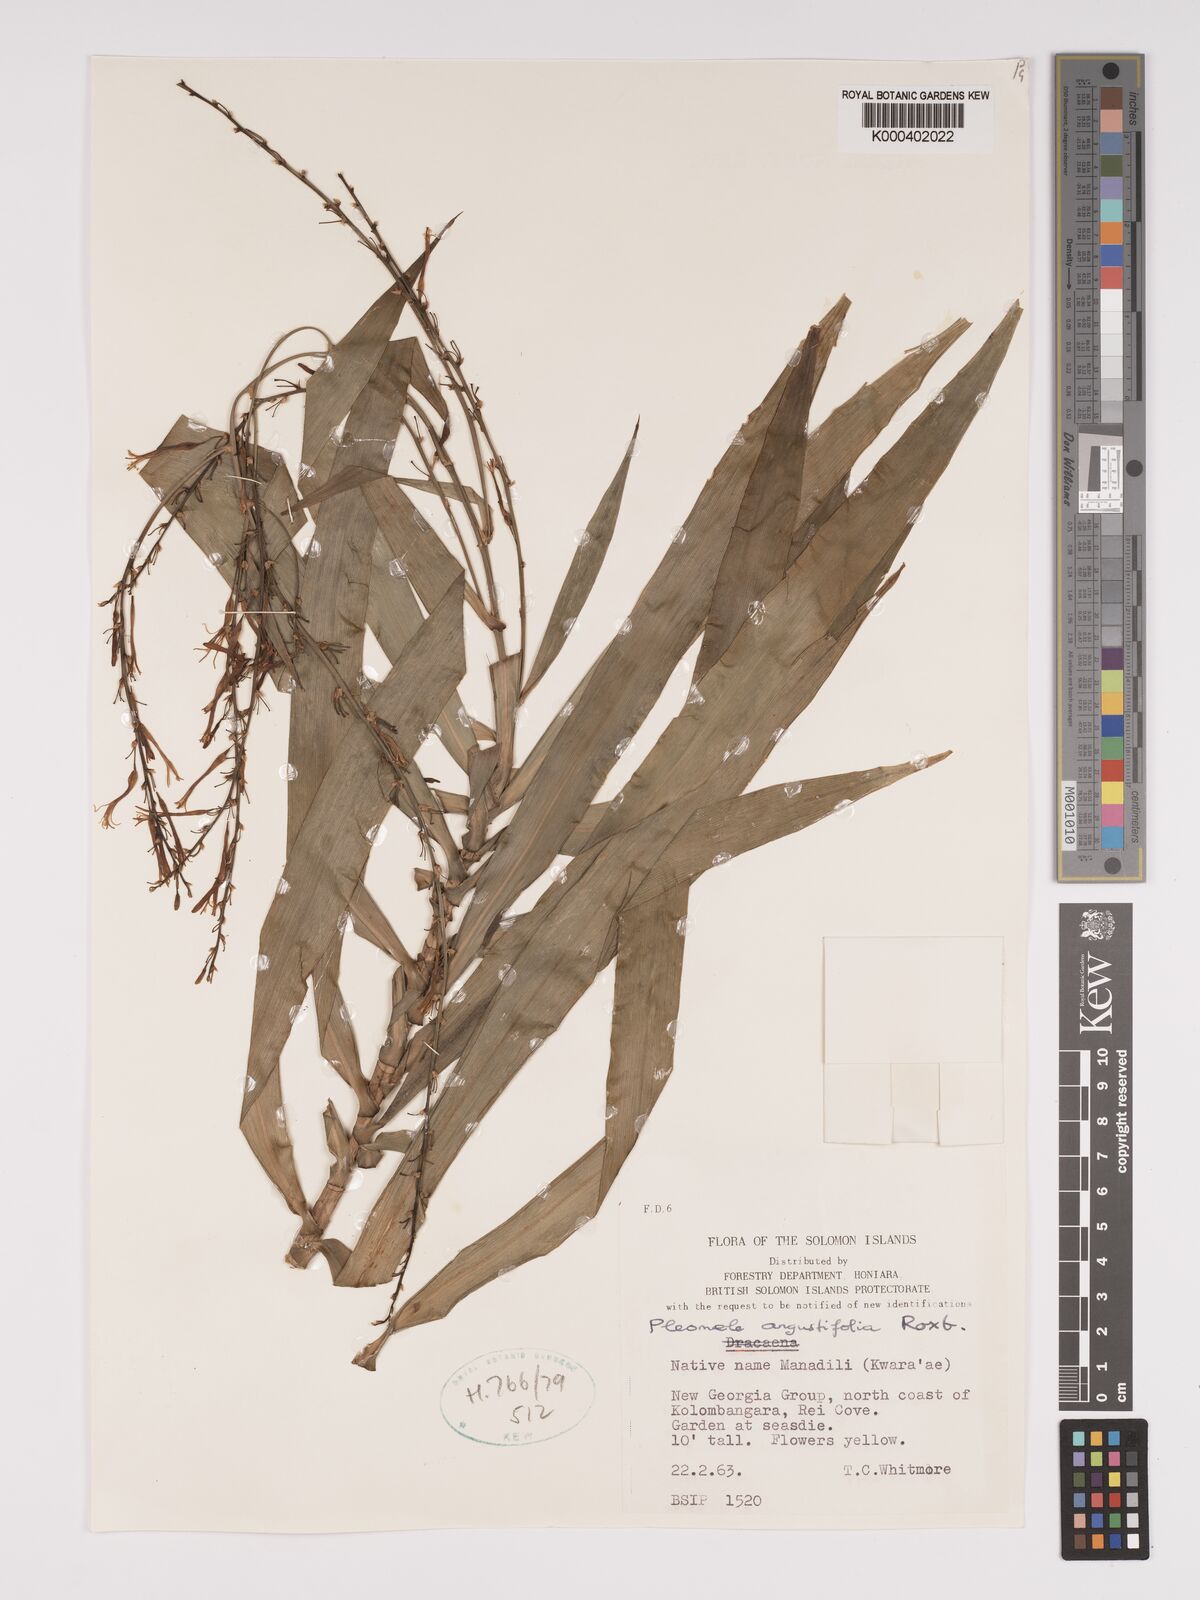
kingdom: Plantae
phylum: Tracheophyta
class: Liliopsida
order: Asparagales
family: Asparagaceae
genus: Dracaena
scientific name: Dracaena angustifolia
